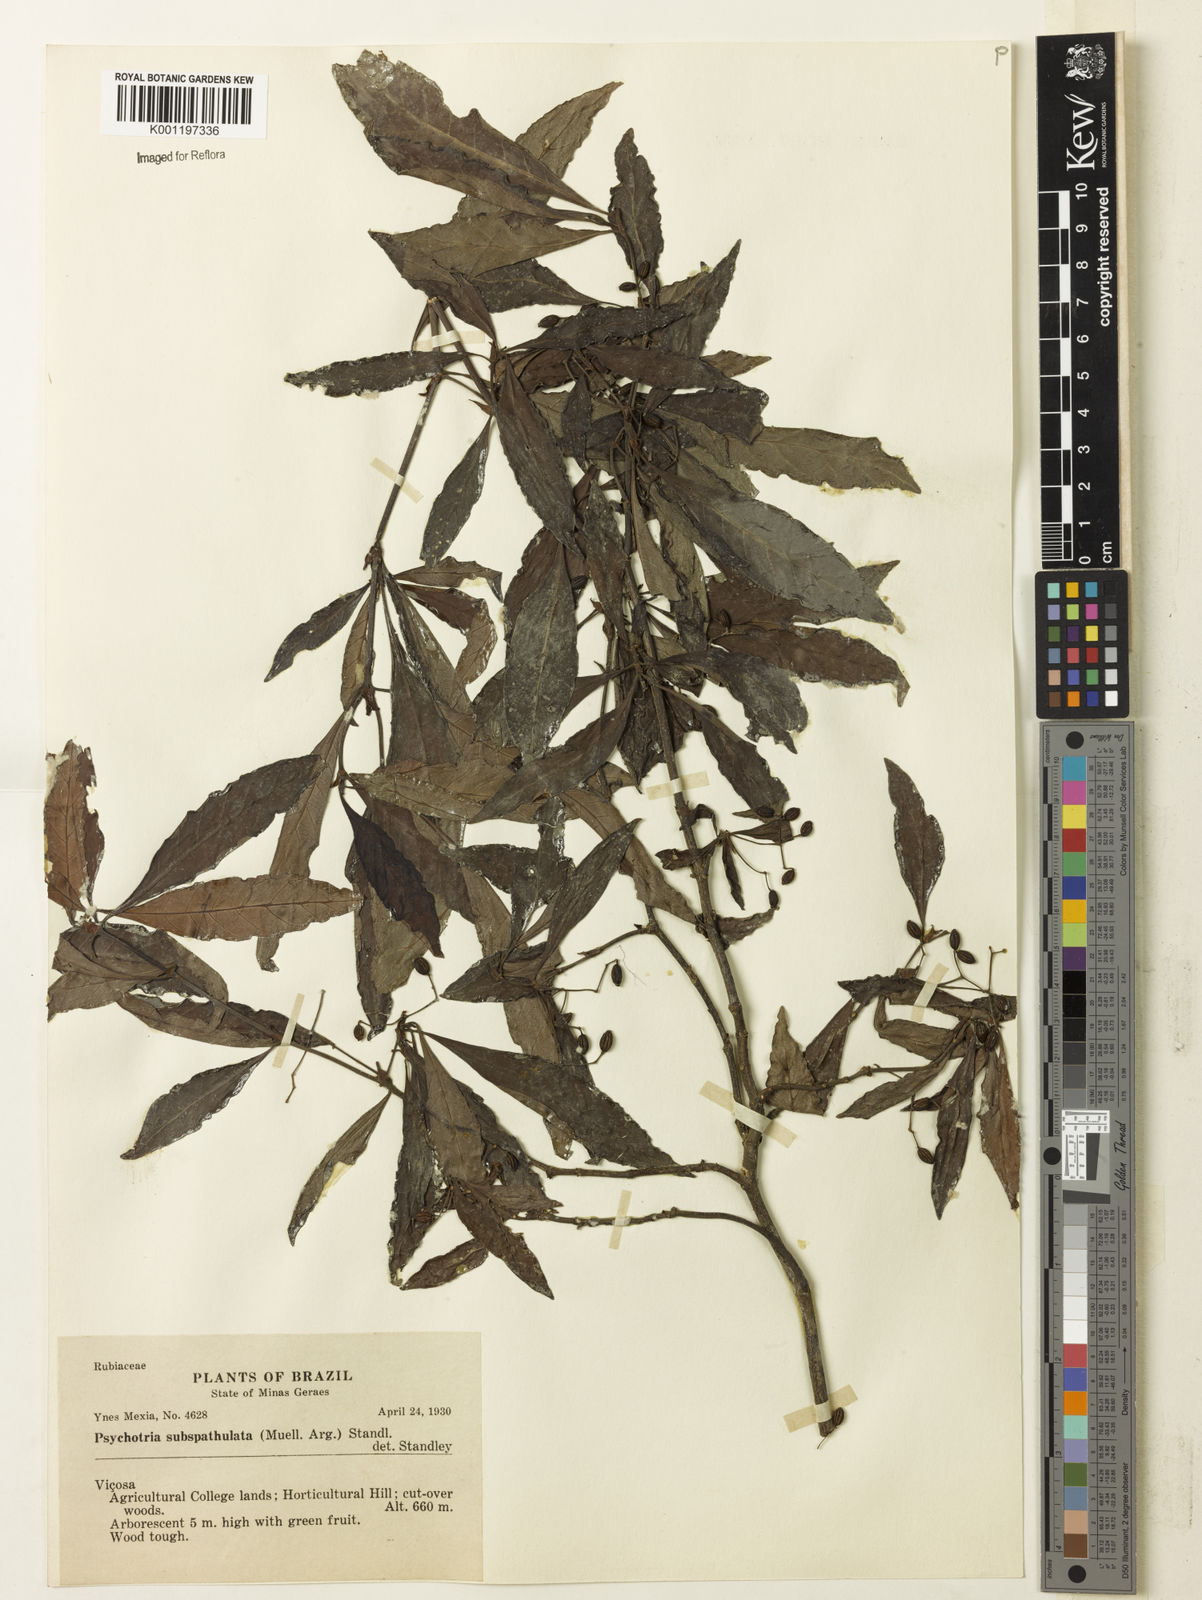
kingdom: Plantae
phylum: Tracheophyta
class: Magnoliopsida
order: Gentianales
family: Rubiaceae
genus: Psychotria
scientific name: Psychotria
